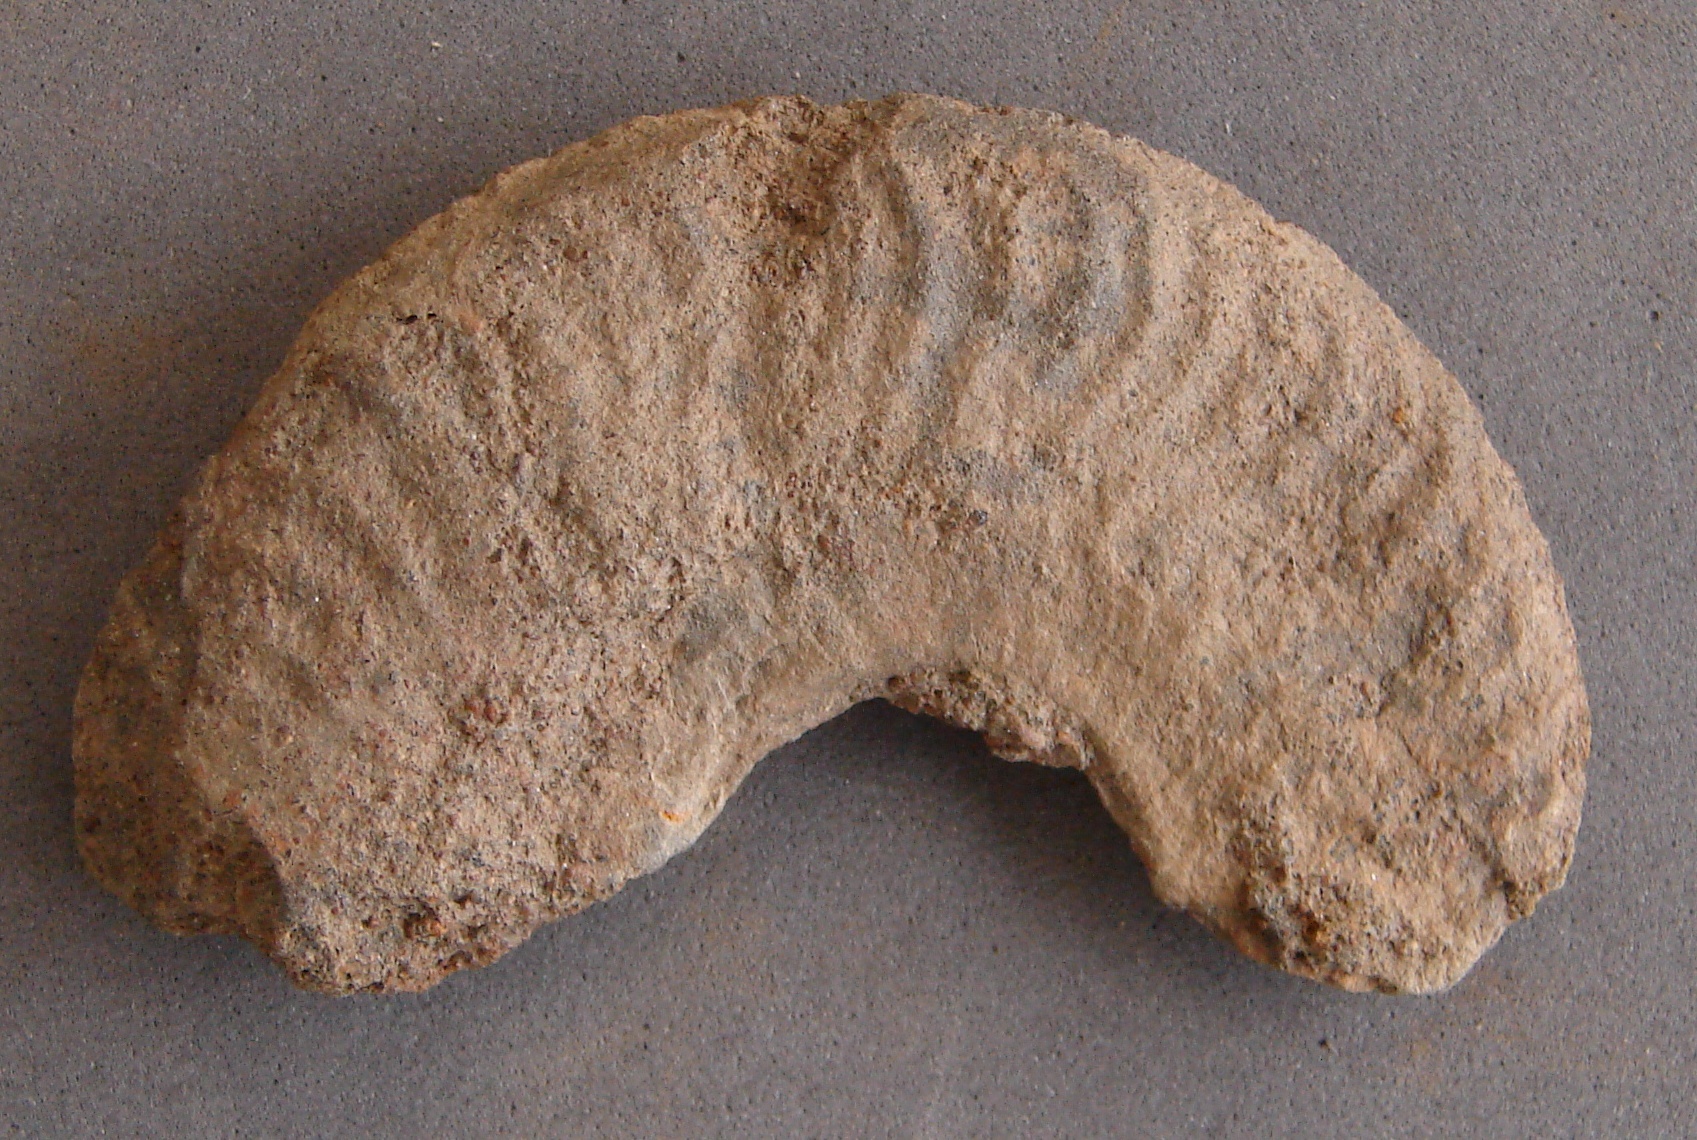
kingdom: Animalia
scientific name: Animalia
